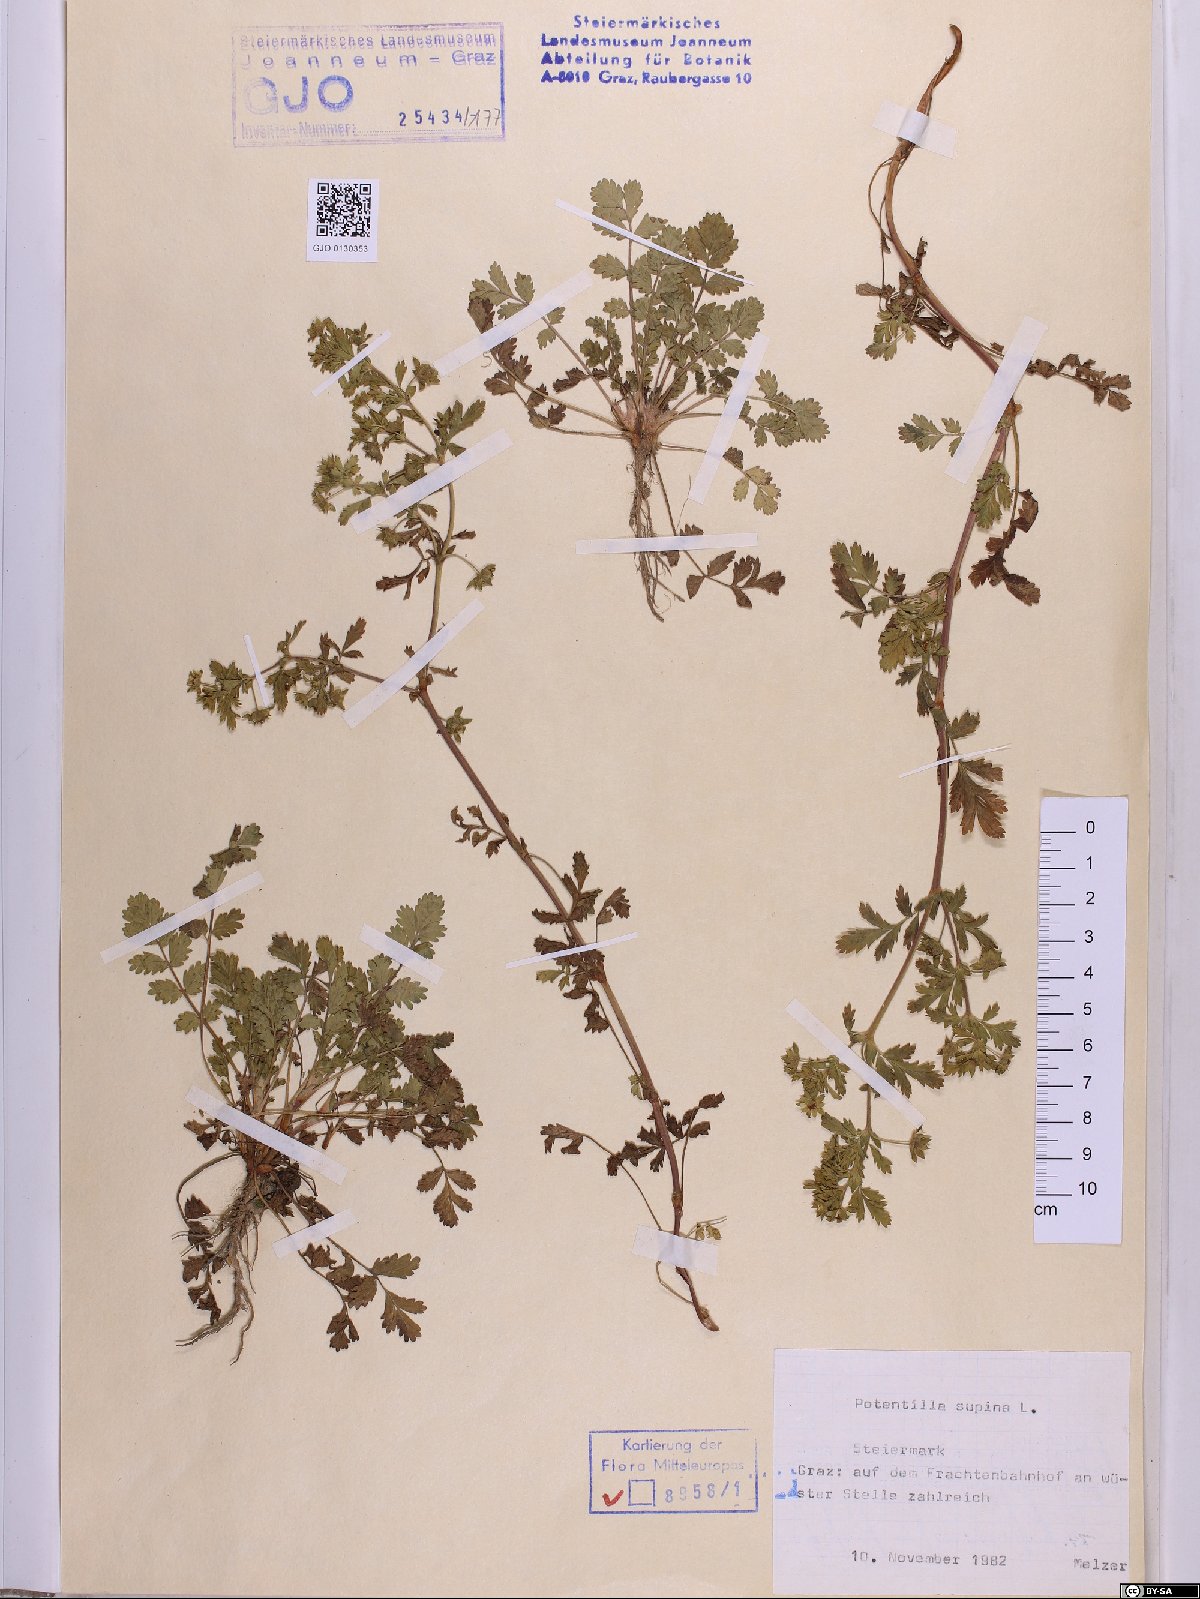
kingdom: Plantae
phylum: Tracheophyta
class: Magnoliopsida
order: Rosales
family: Rosaceae
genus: Potentilla
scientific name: Potentilla supina
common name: Prostrate cinquefoil
